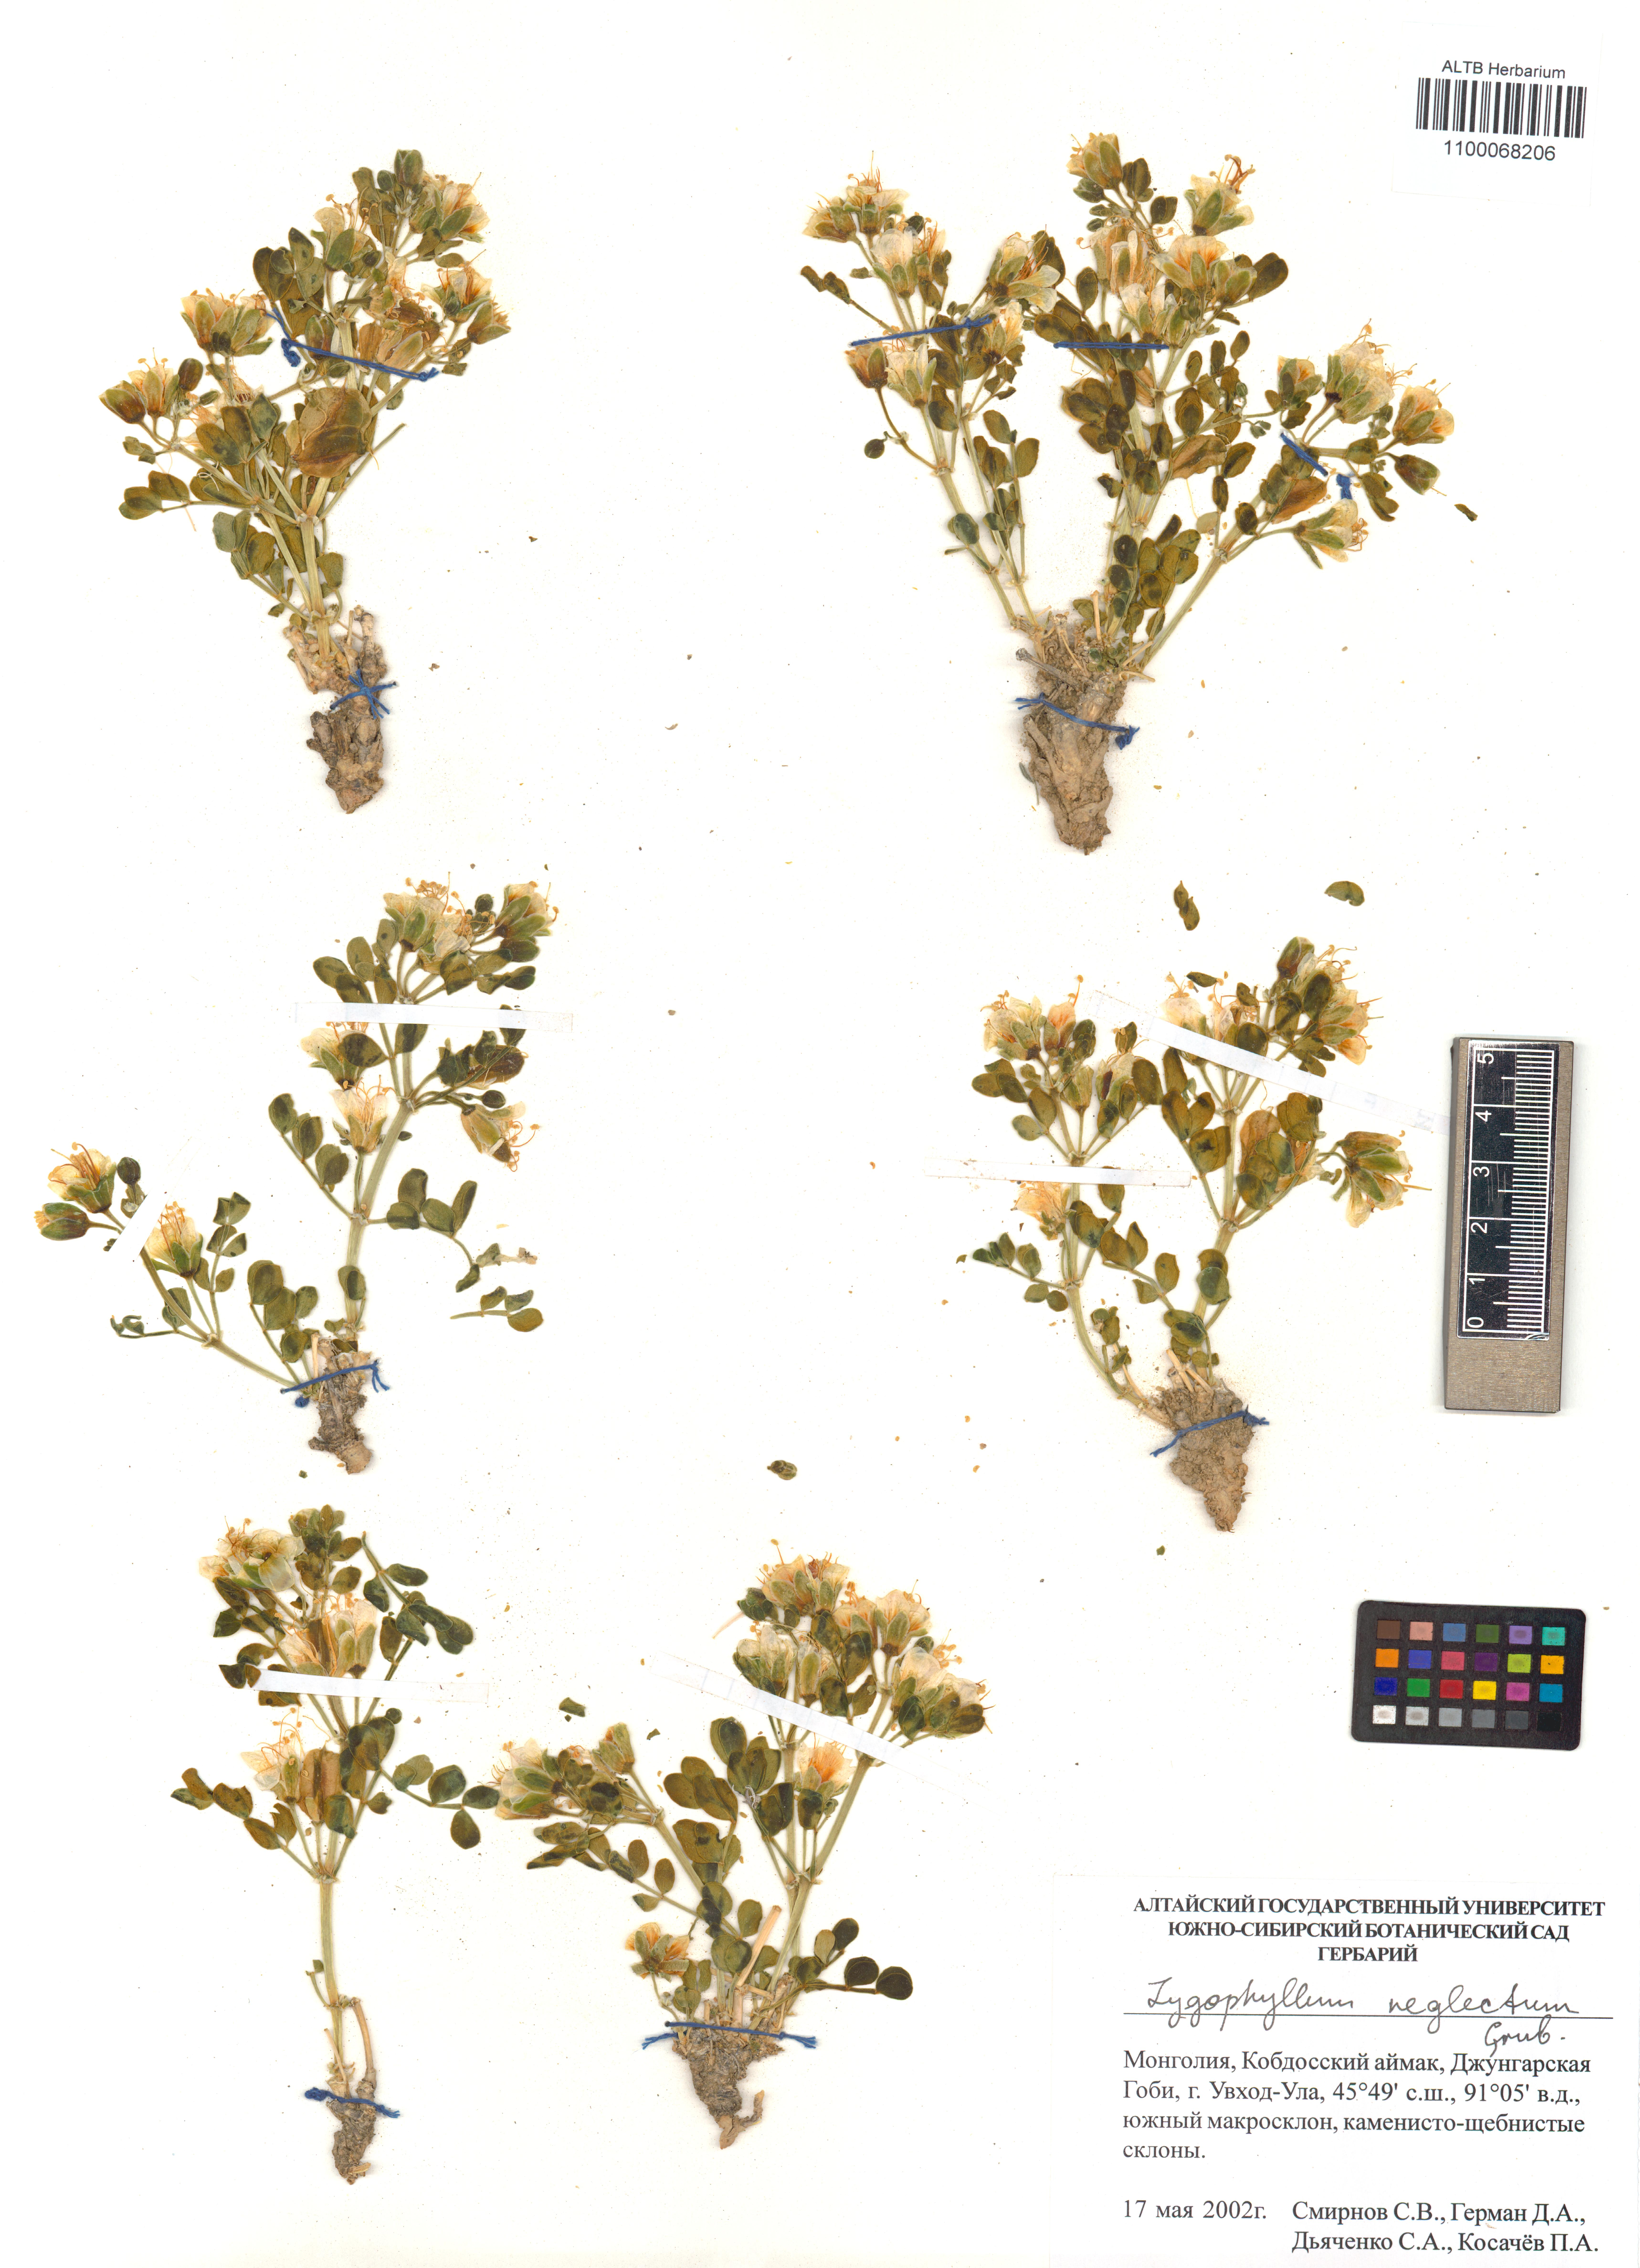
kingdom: Plantae
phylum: Tracheophyta
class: Magnoliopsida
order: Zygophyllales
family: Zygophyllaceae
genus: Zygophyllum
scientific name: Zygophyllum neglectum
